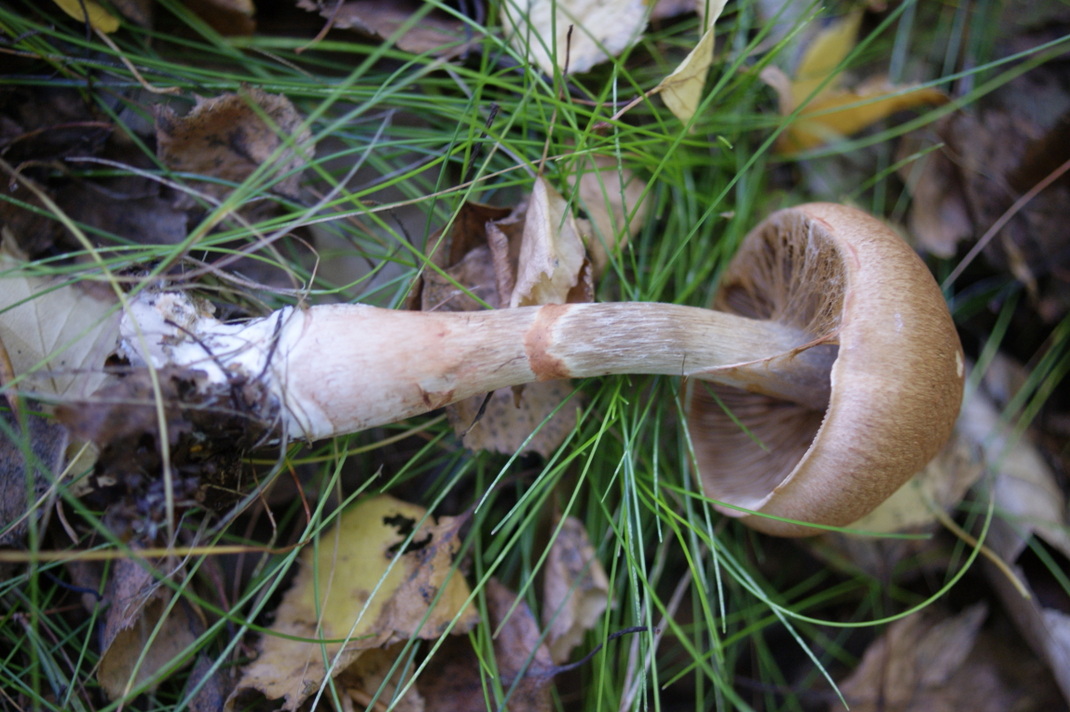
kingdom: Fungi
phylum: Basidiomycota
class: Agaricomycetes
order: Agaricales
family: Cortinariaceae
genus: Cortinarius
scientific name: Cortinarius armillatus
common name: cinnoberbæltet slørhat
